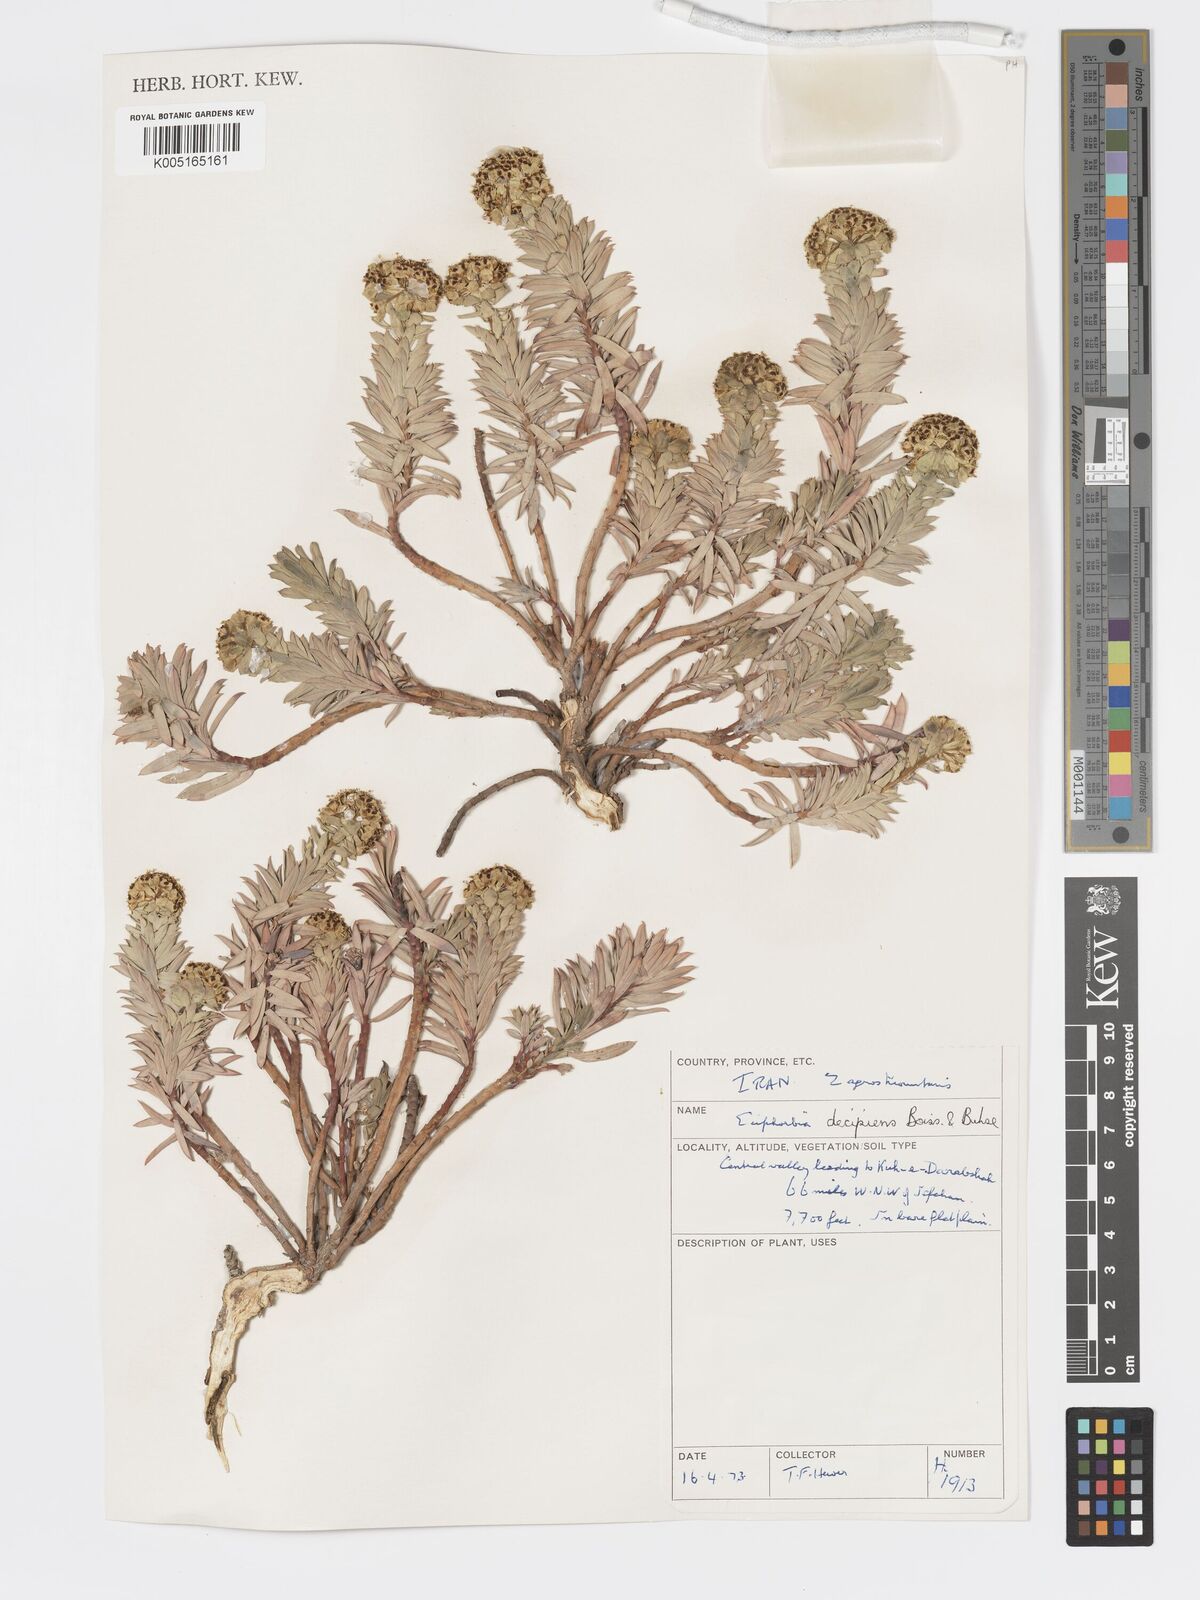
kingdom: Plantae
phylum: Tracheophyta
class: Magnoliopsida
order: Malpighiales
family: Euphorbiaceae
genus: Euphorbia
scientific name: Euphorbia polycaulis
